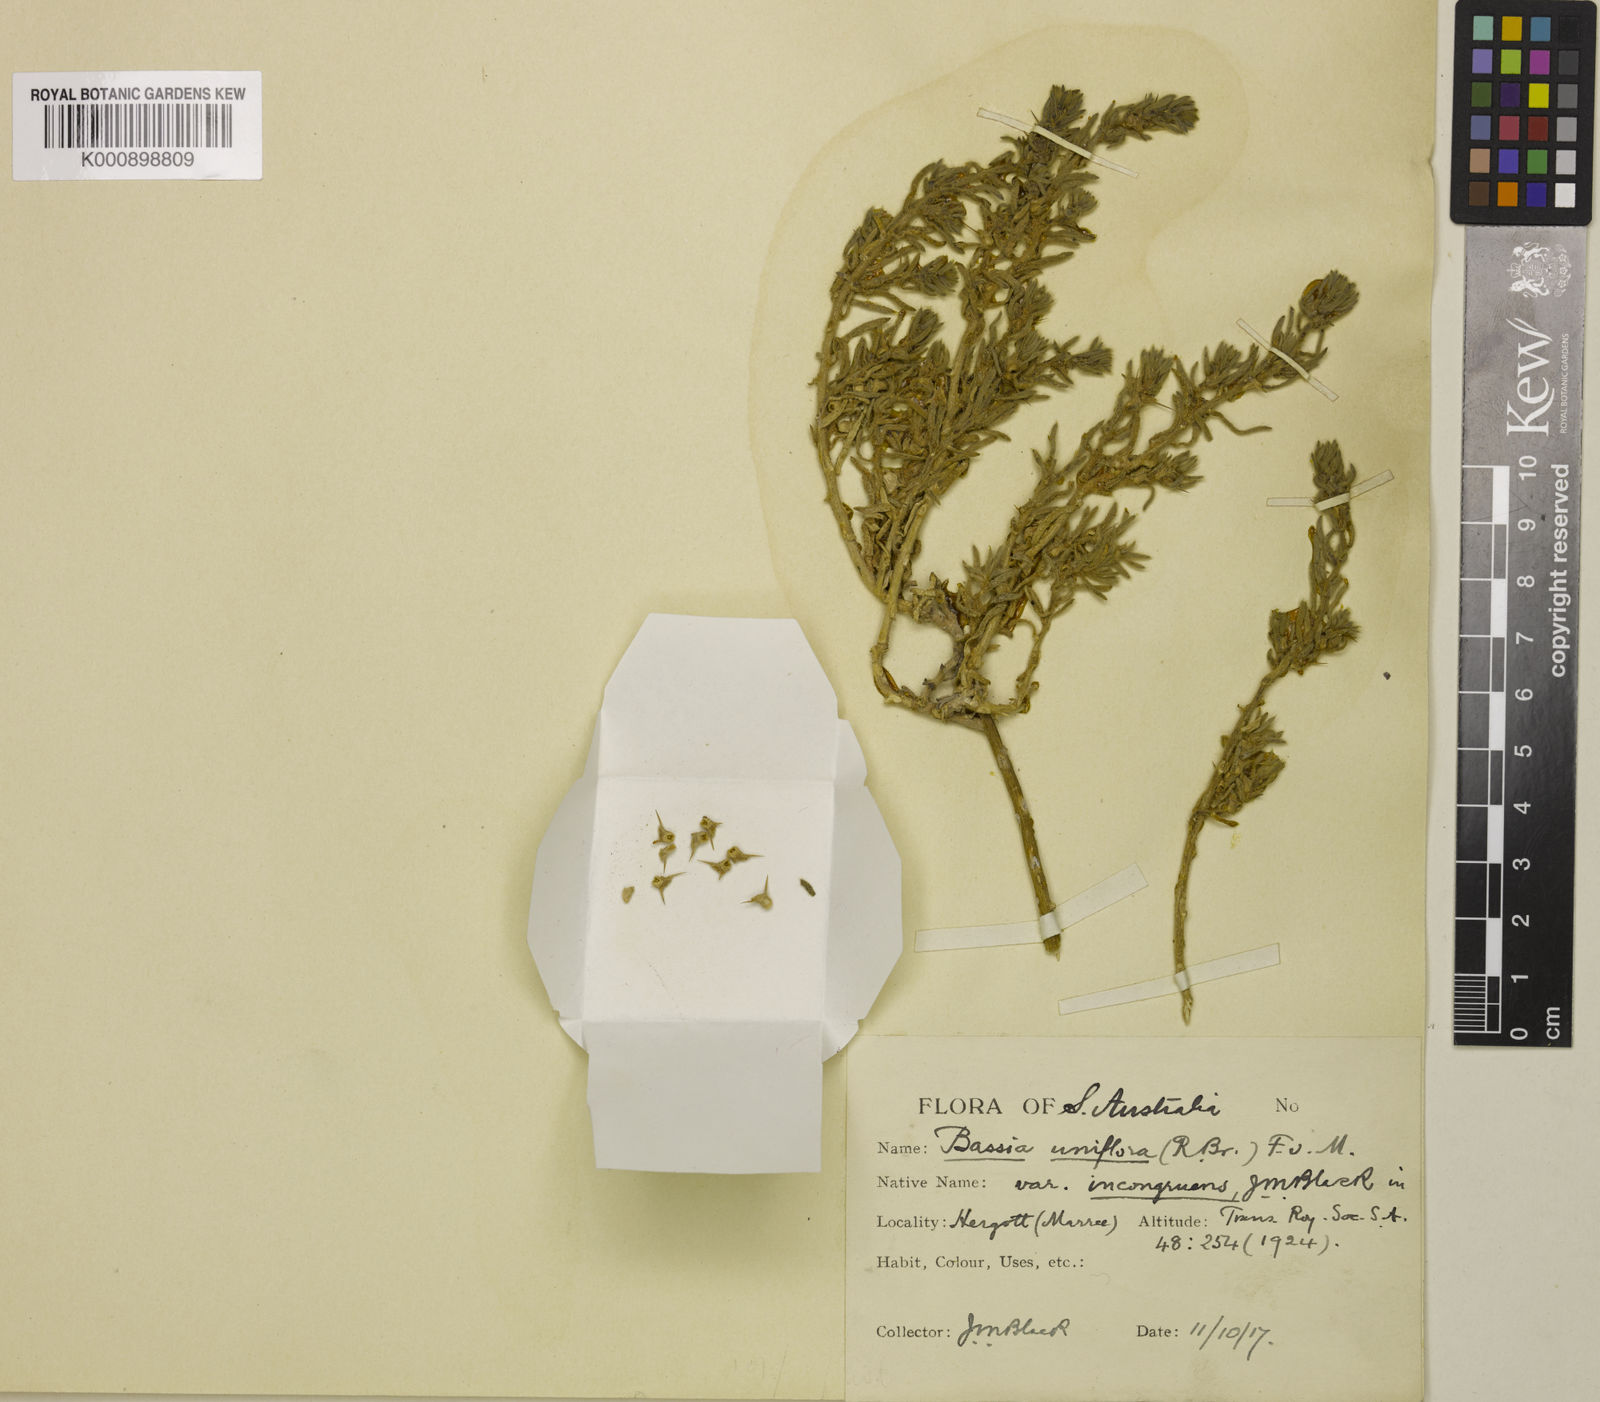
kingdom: Plantae
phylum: Tracheophyta
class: Liliopsida
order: Asparagales
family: Orchidaceae
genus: Brassia
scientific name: Brassia
